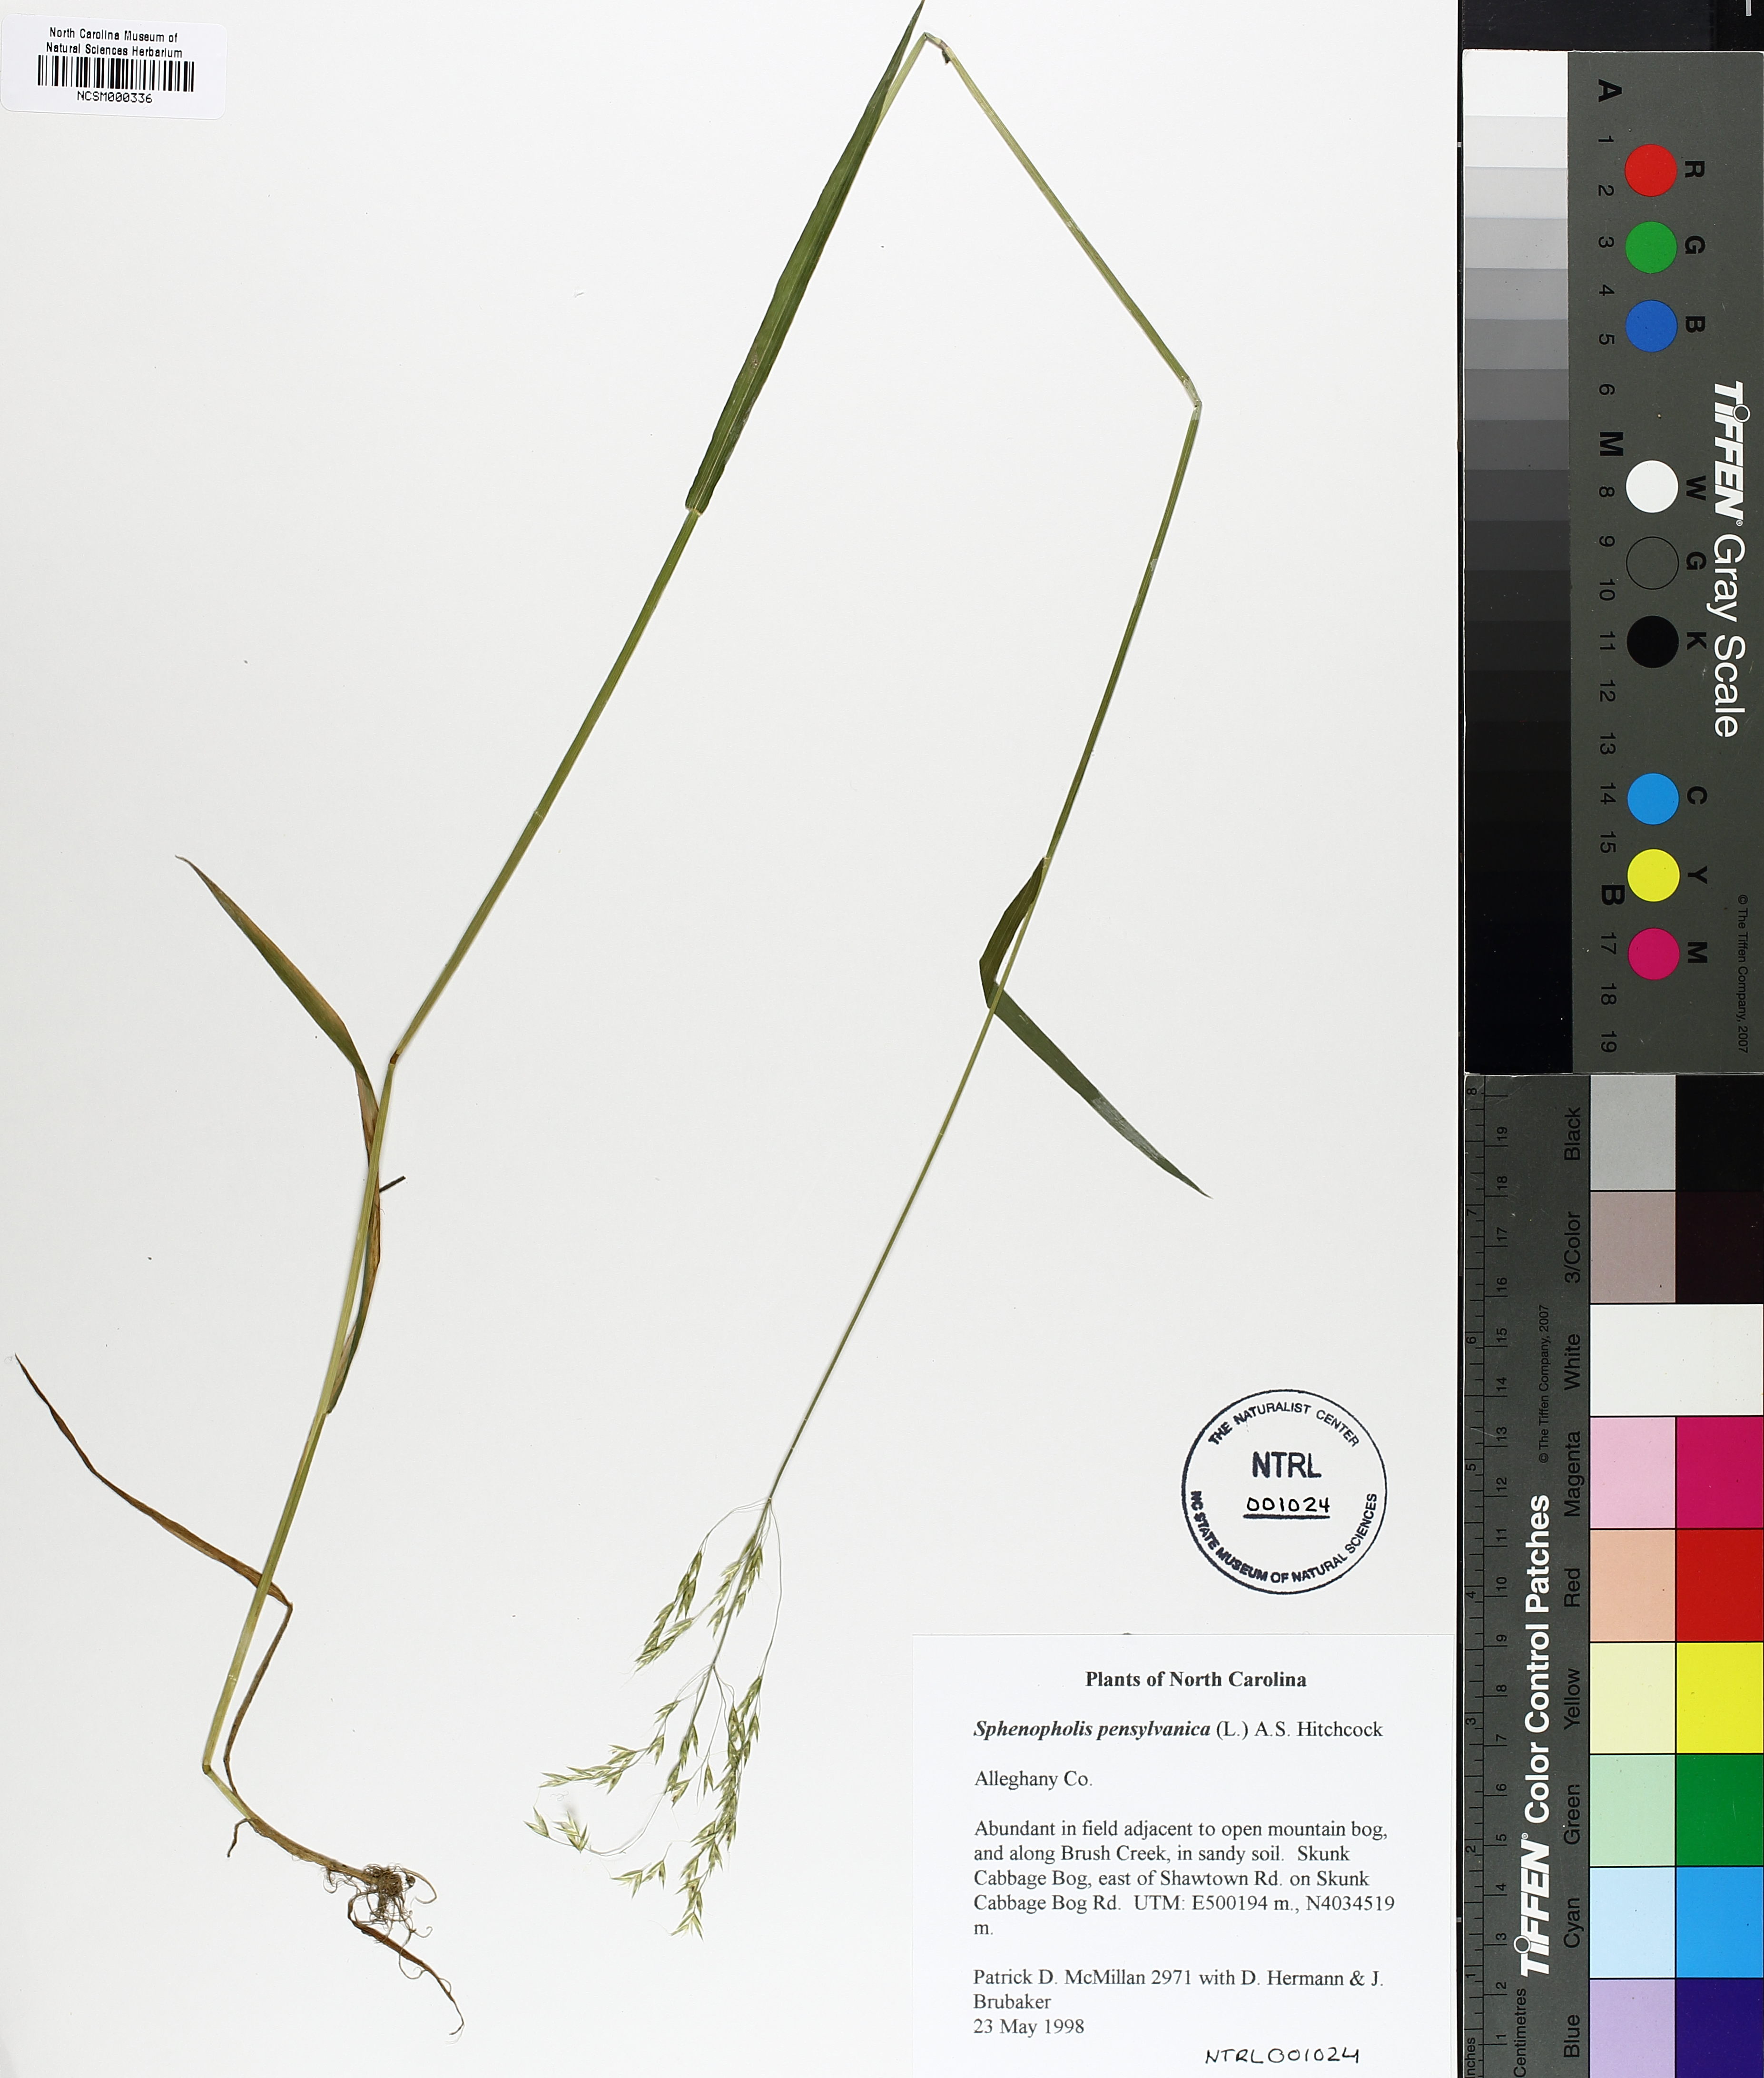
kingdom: Plantae
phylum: Tracheophyta
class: Liliopsida
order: Poales
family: Poaceae
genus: Sphenopholis
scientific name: Sphenopholis pensylvanica
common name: Swamp oats
